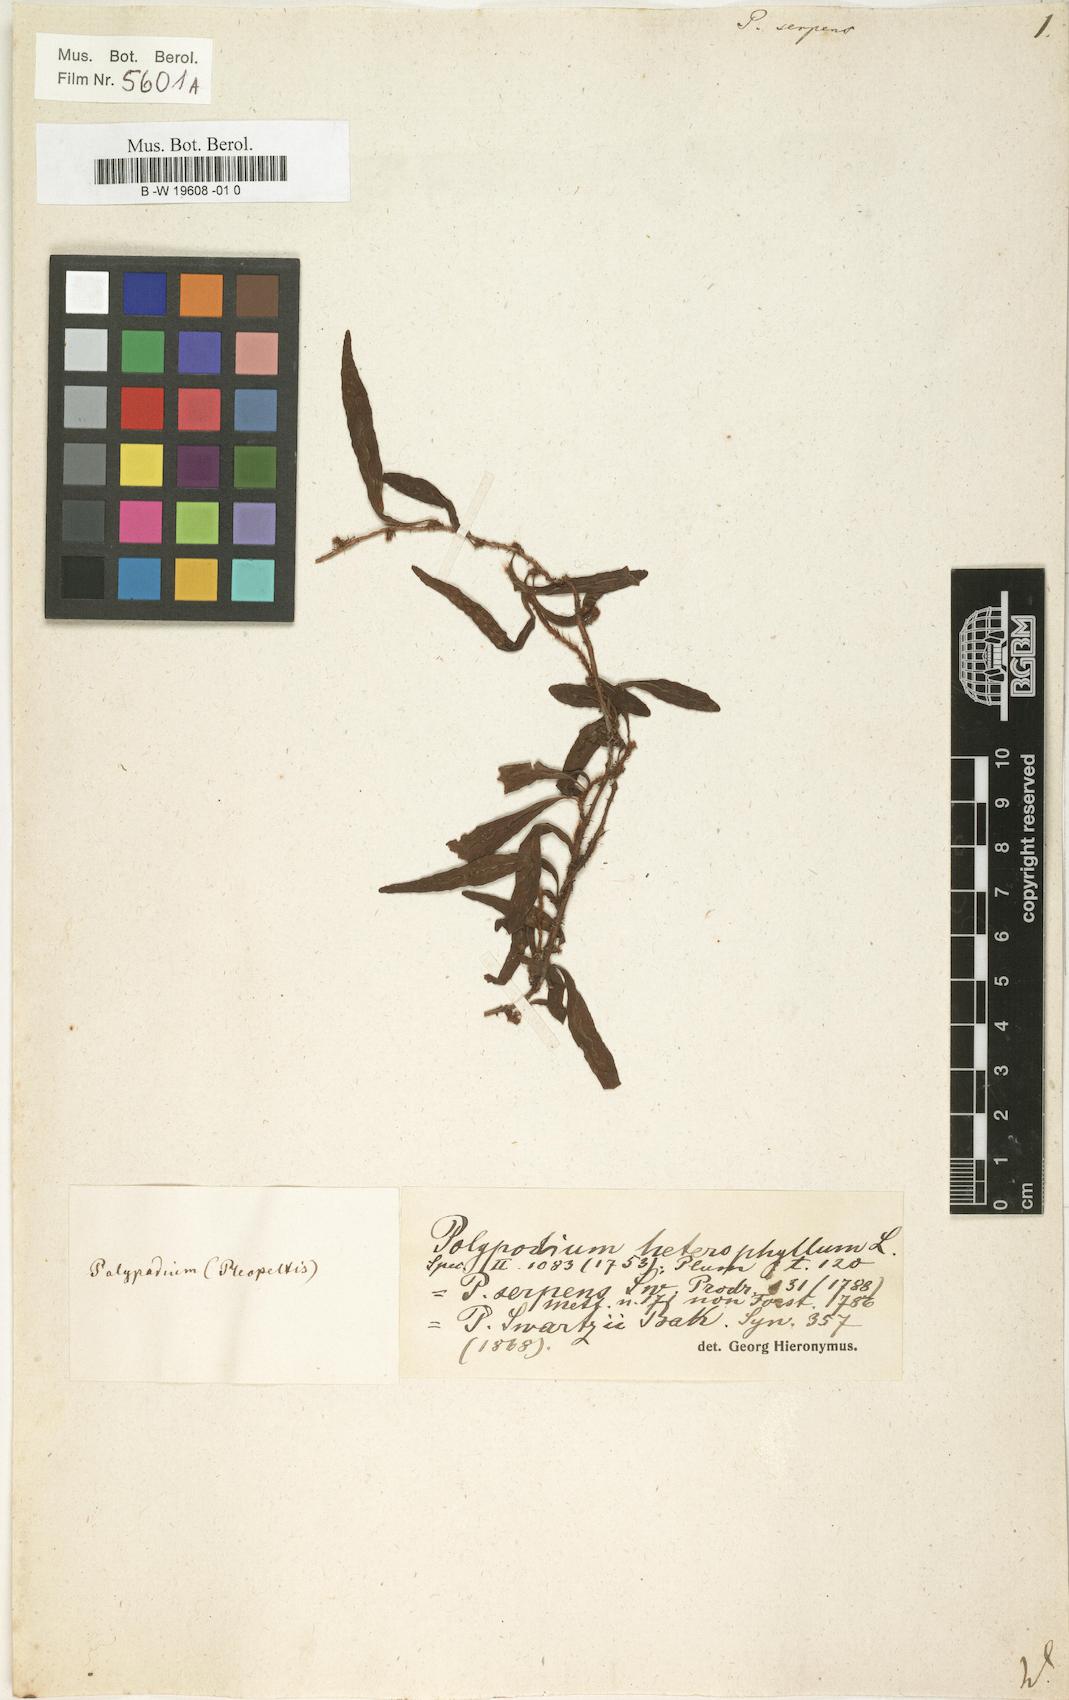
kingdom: Plantae
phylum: Tracheophyta
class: Polypodiopsida
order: Polypodiales
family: Polypodiaceae
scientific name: Polypodiaceae
